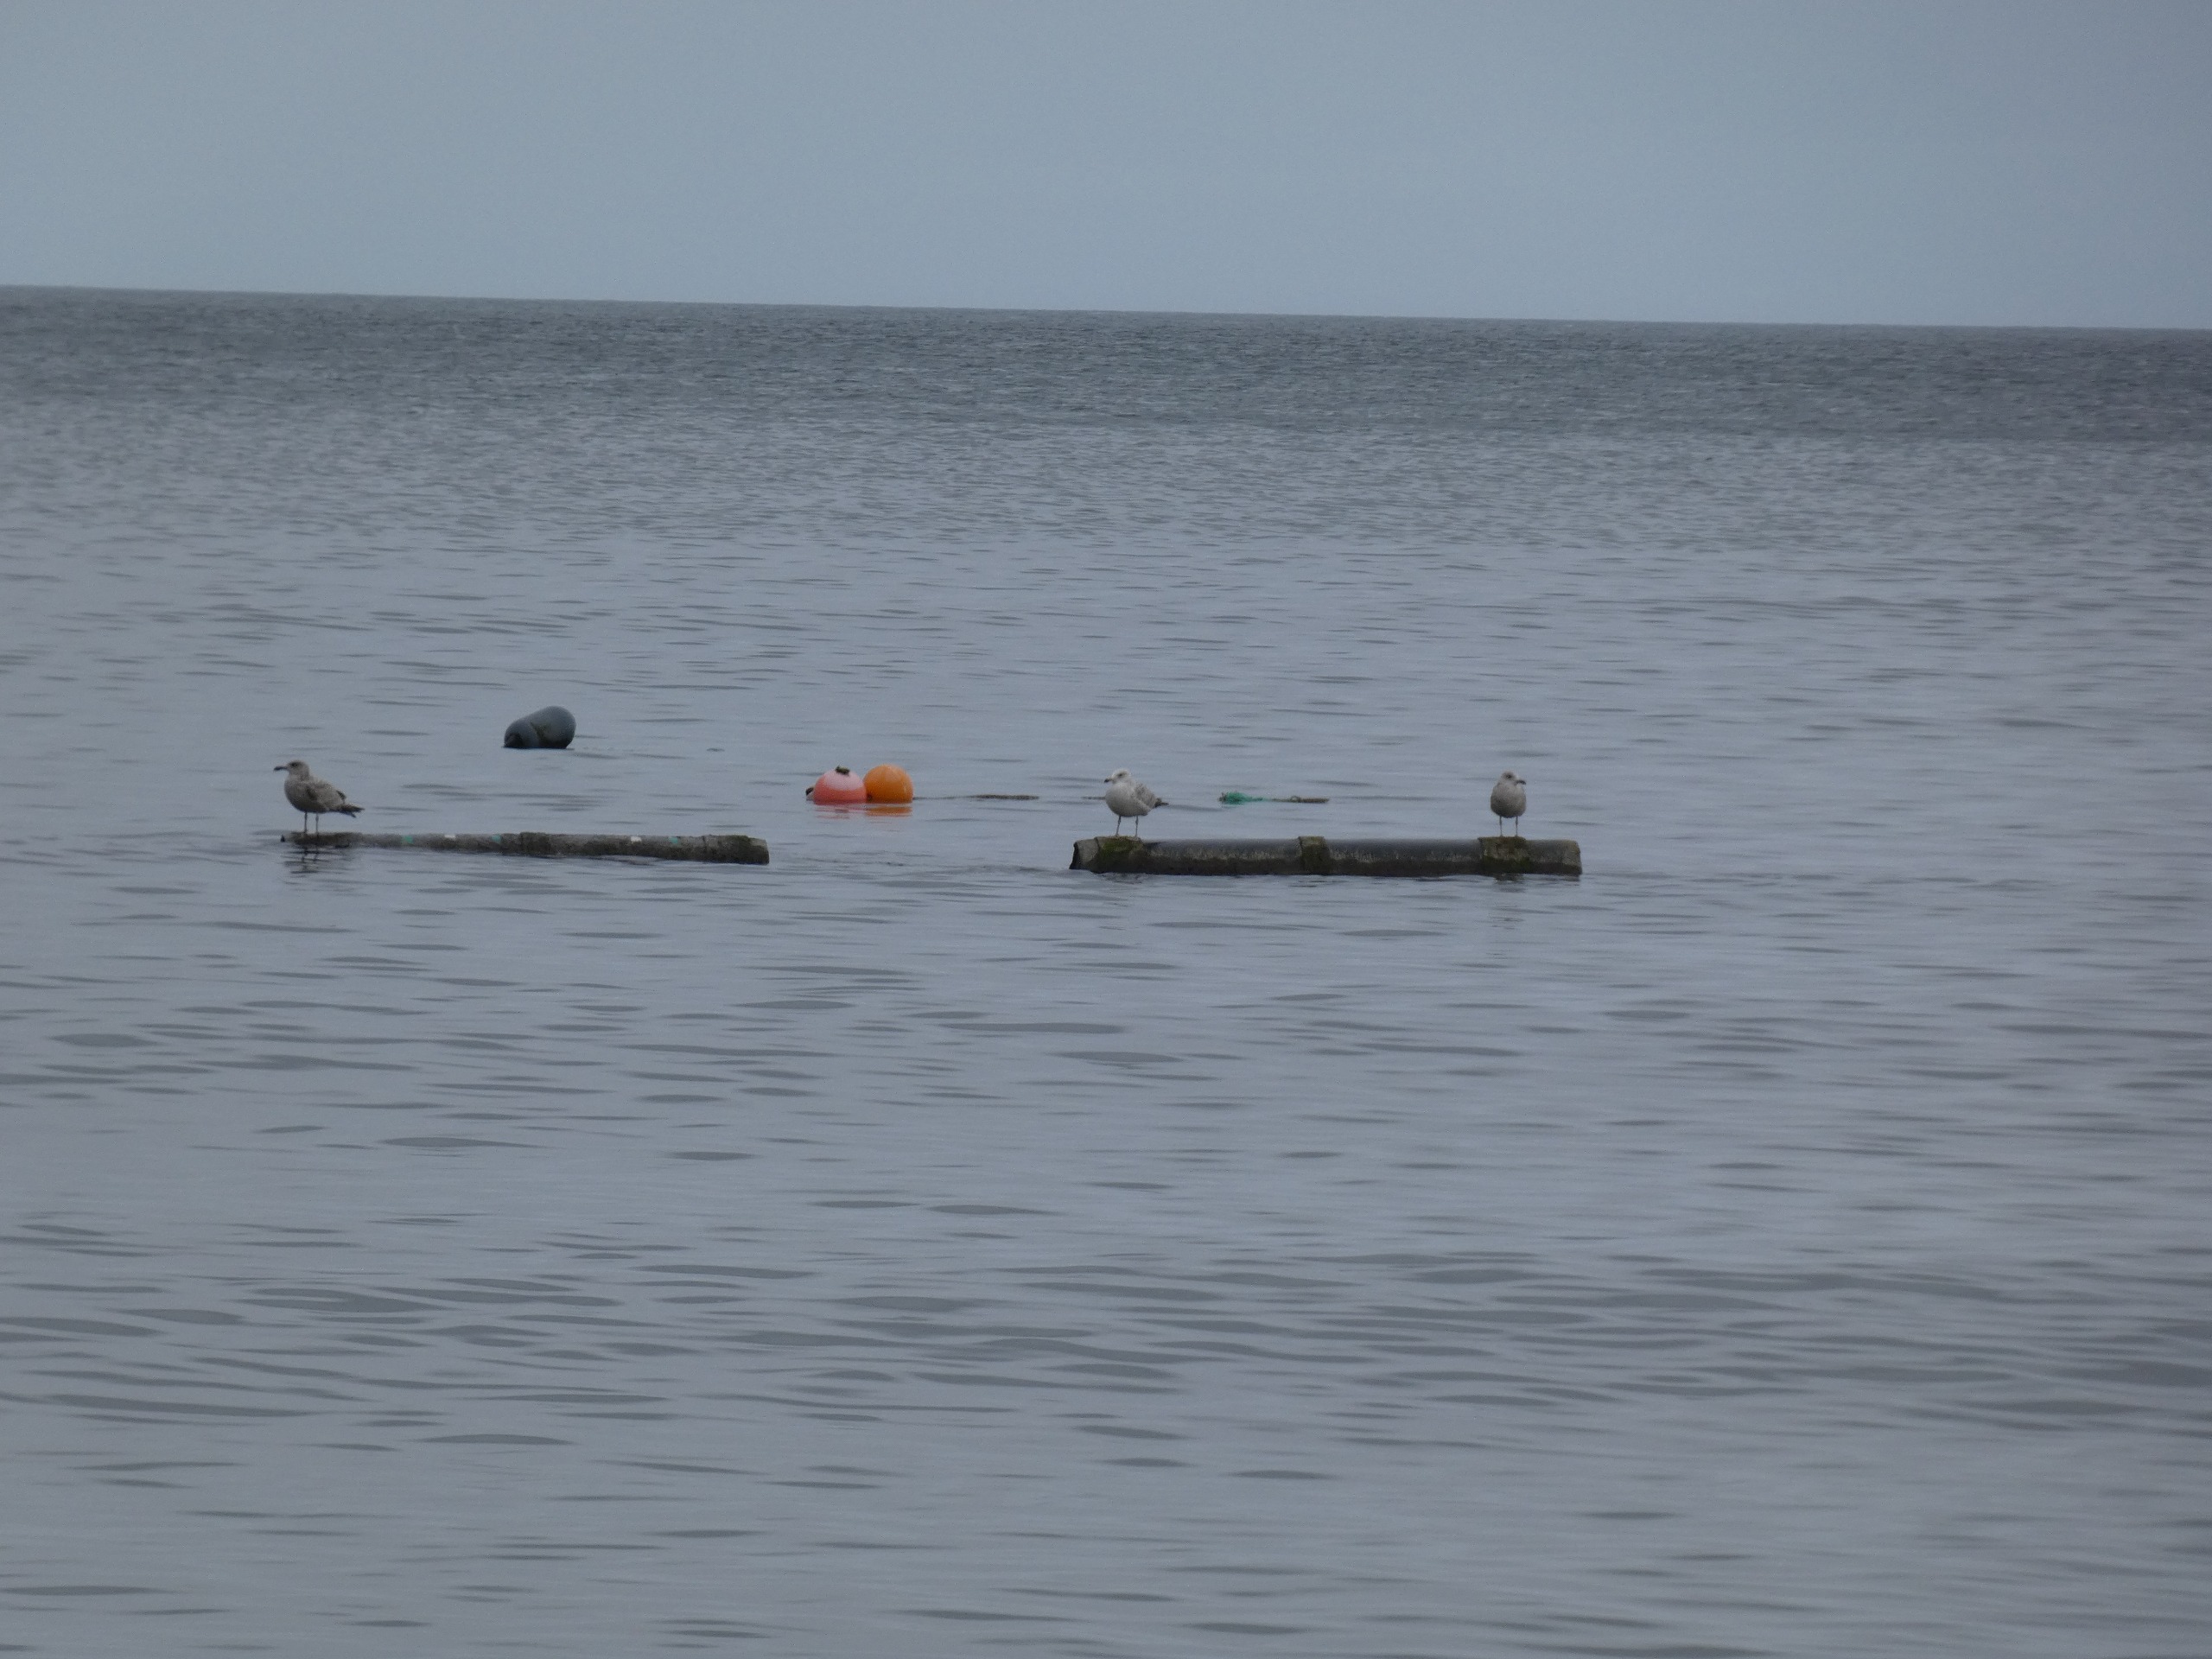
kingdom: Animalia
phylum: Chordata
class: Aves
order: Charadriiformes
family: Laridae
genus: Larus
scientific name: Larus argentatus
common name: Sølvmåge
